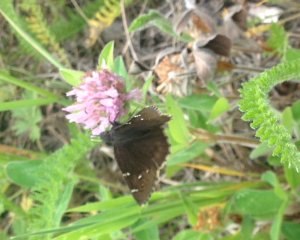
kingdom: Animalia
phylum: Arthropoda
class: Insecta
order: Lepidoptera
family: Hesperiidae
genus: Autochton
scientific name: Autochton
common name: Northern Cloudywing
